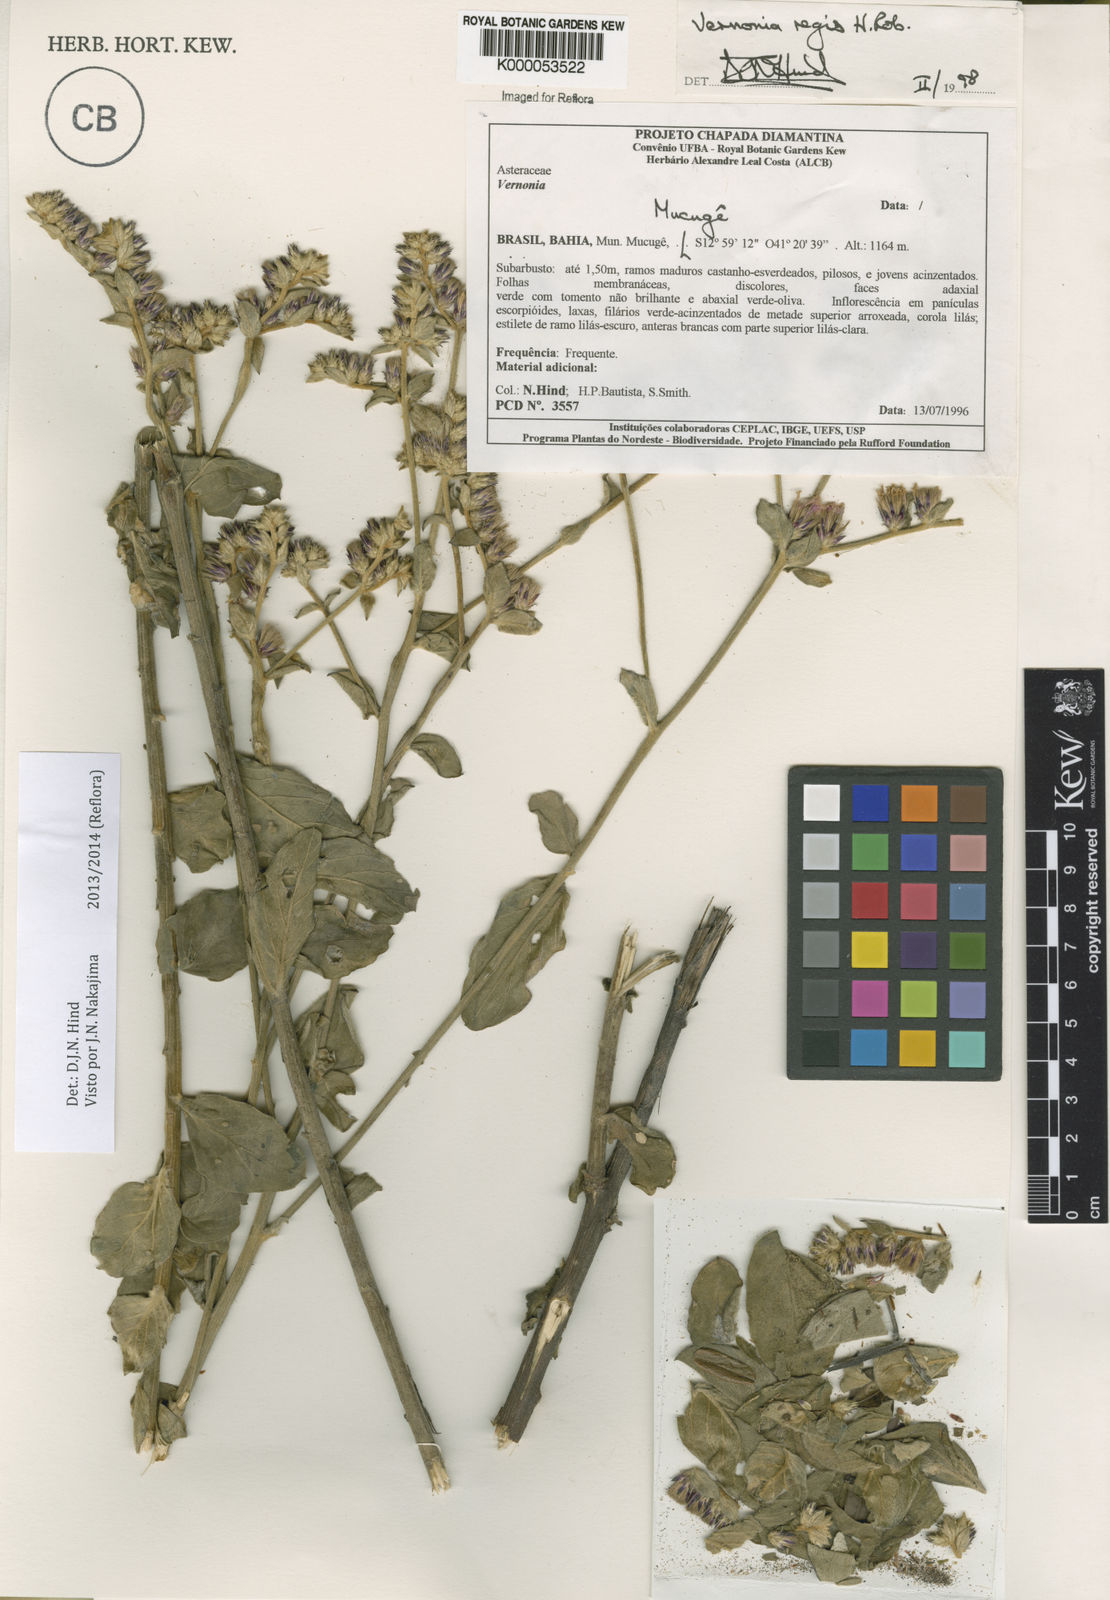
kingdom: Plantae
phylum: Tracheophyta
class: Magnoliopsida
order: Asterales
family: Asteraceae
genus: Lessingianthus
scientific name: Lessingianthus regis
